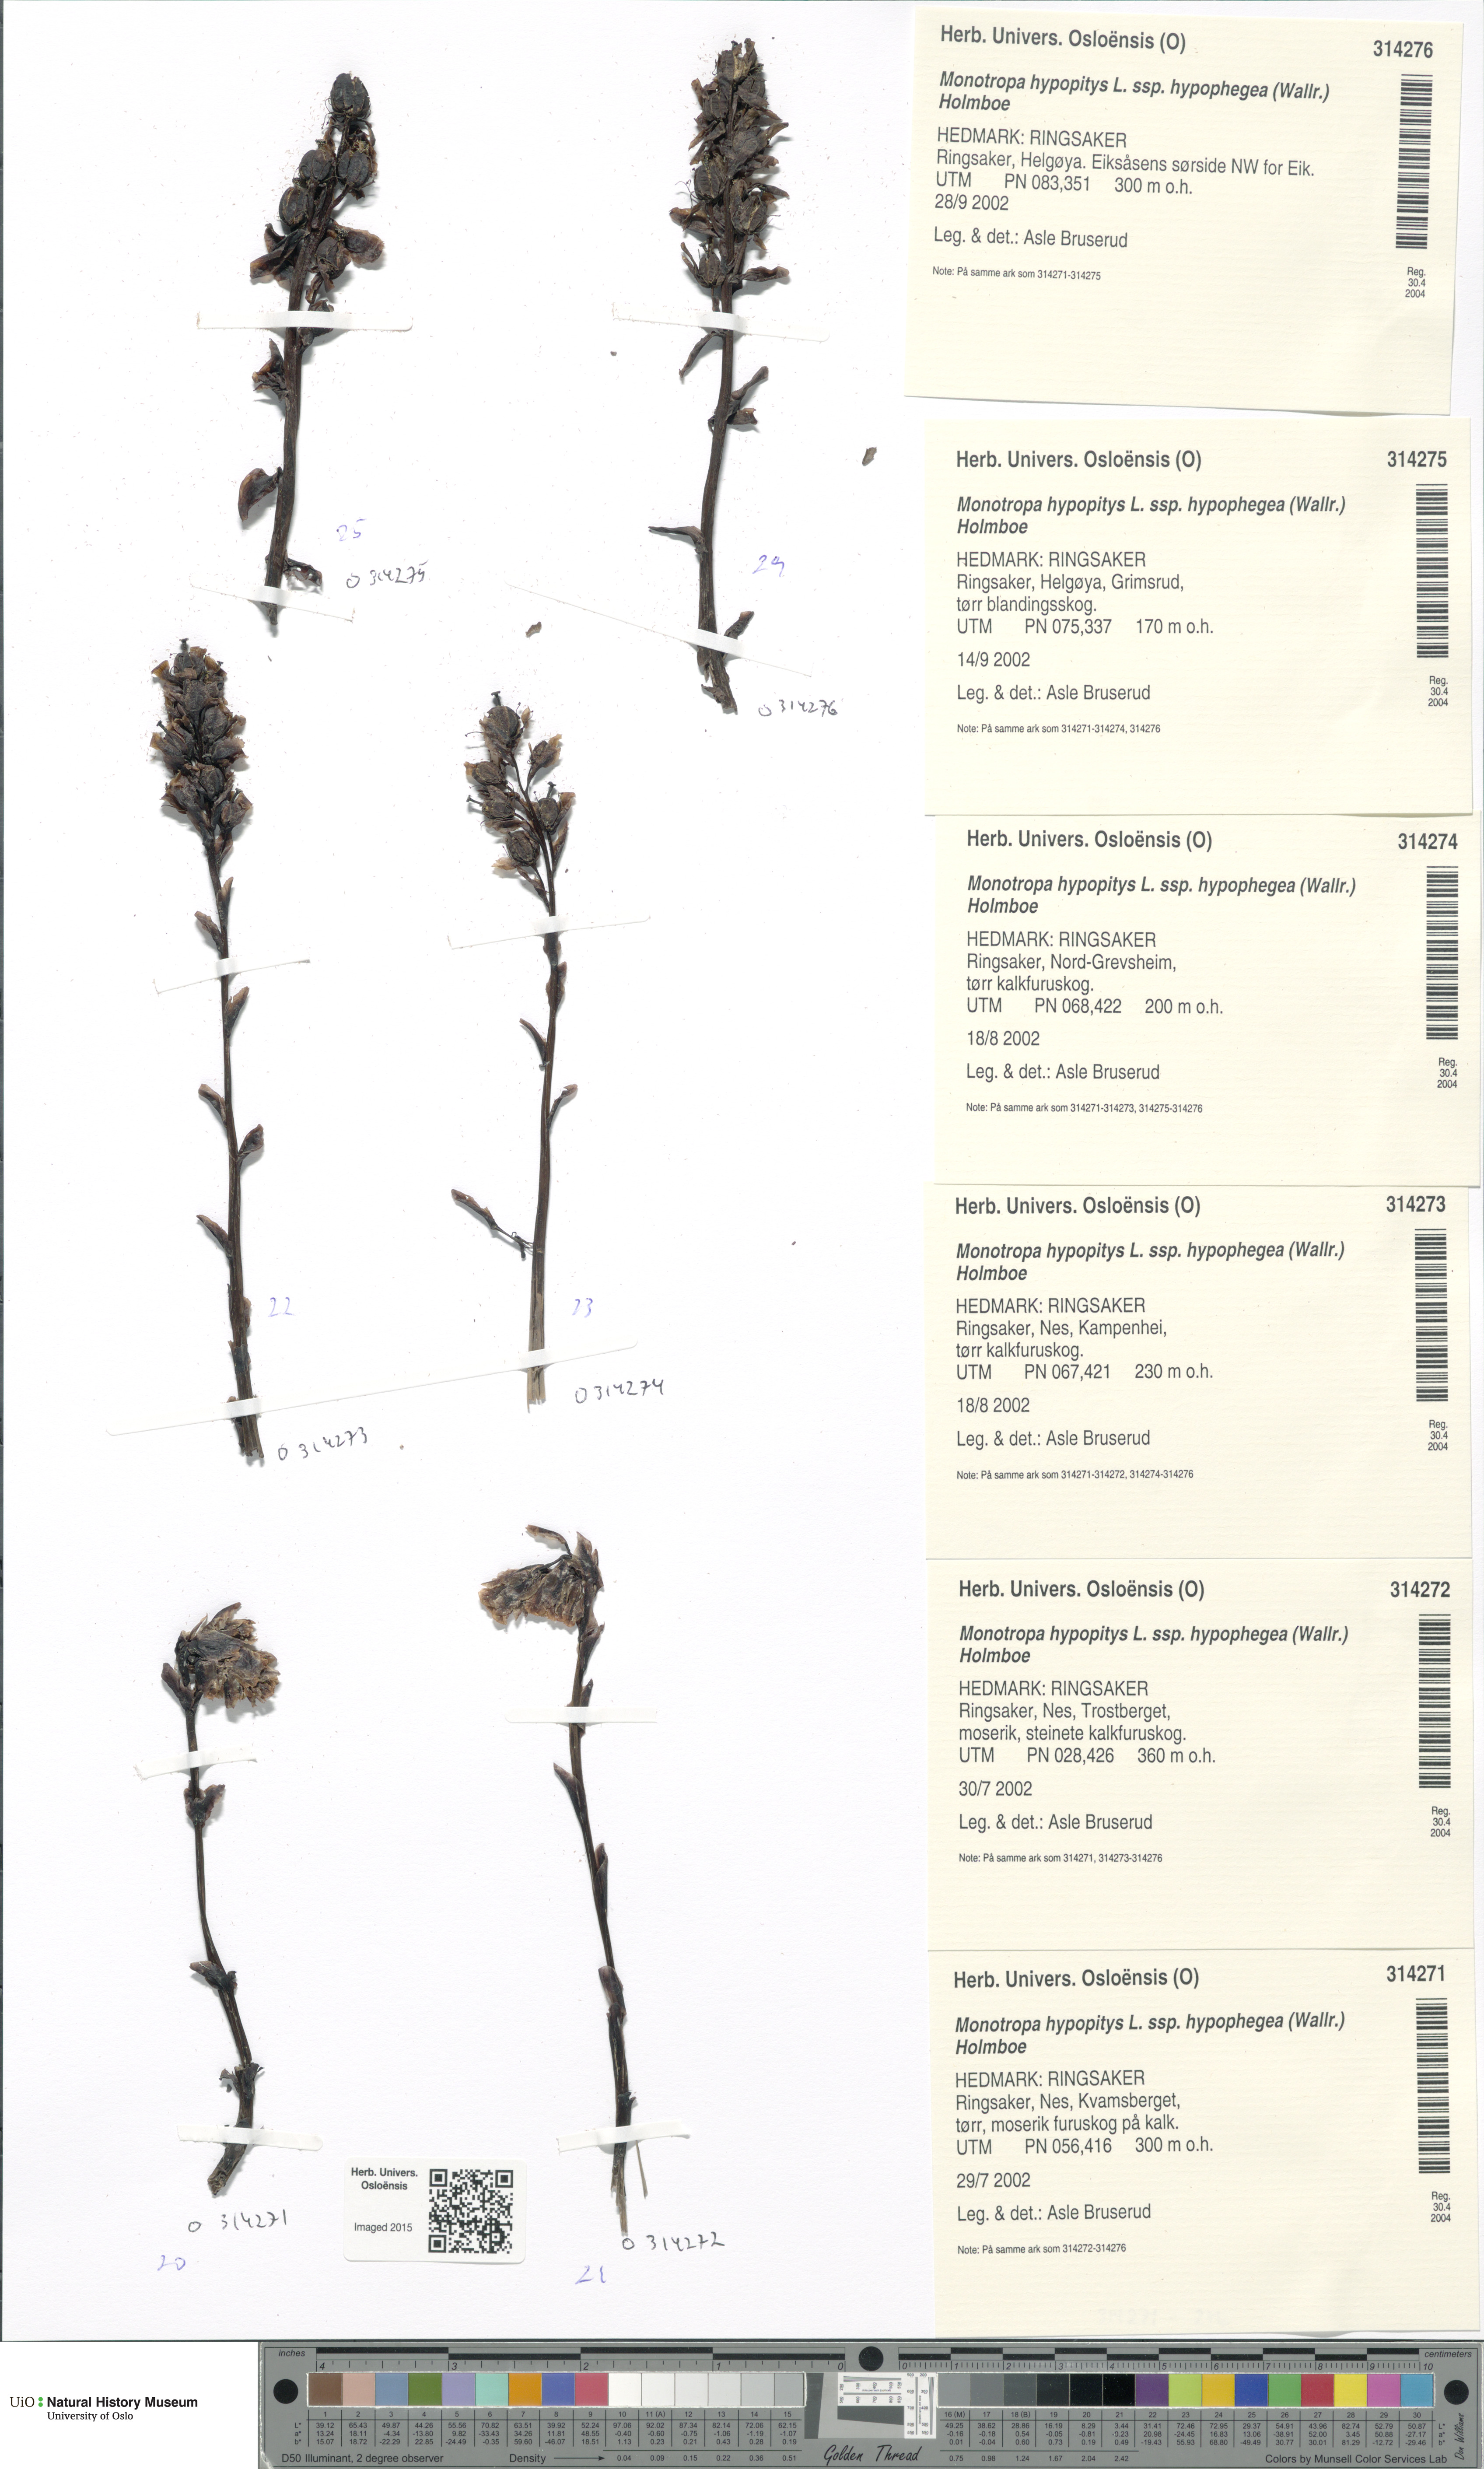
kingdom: Plantae
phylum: Tracheophyta
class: Magnoliopsida
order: Ericales
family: Ericaceae
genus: Hypopitys
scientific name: Hypopitys hypophegea
